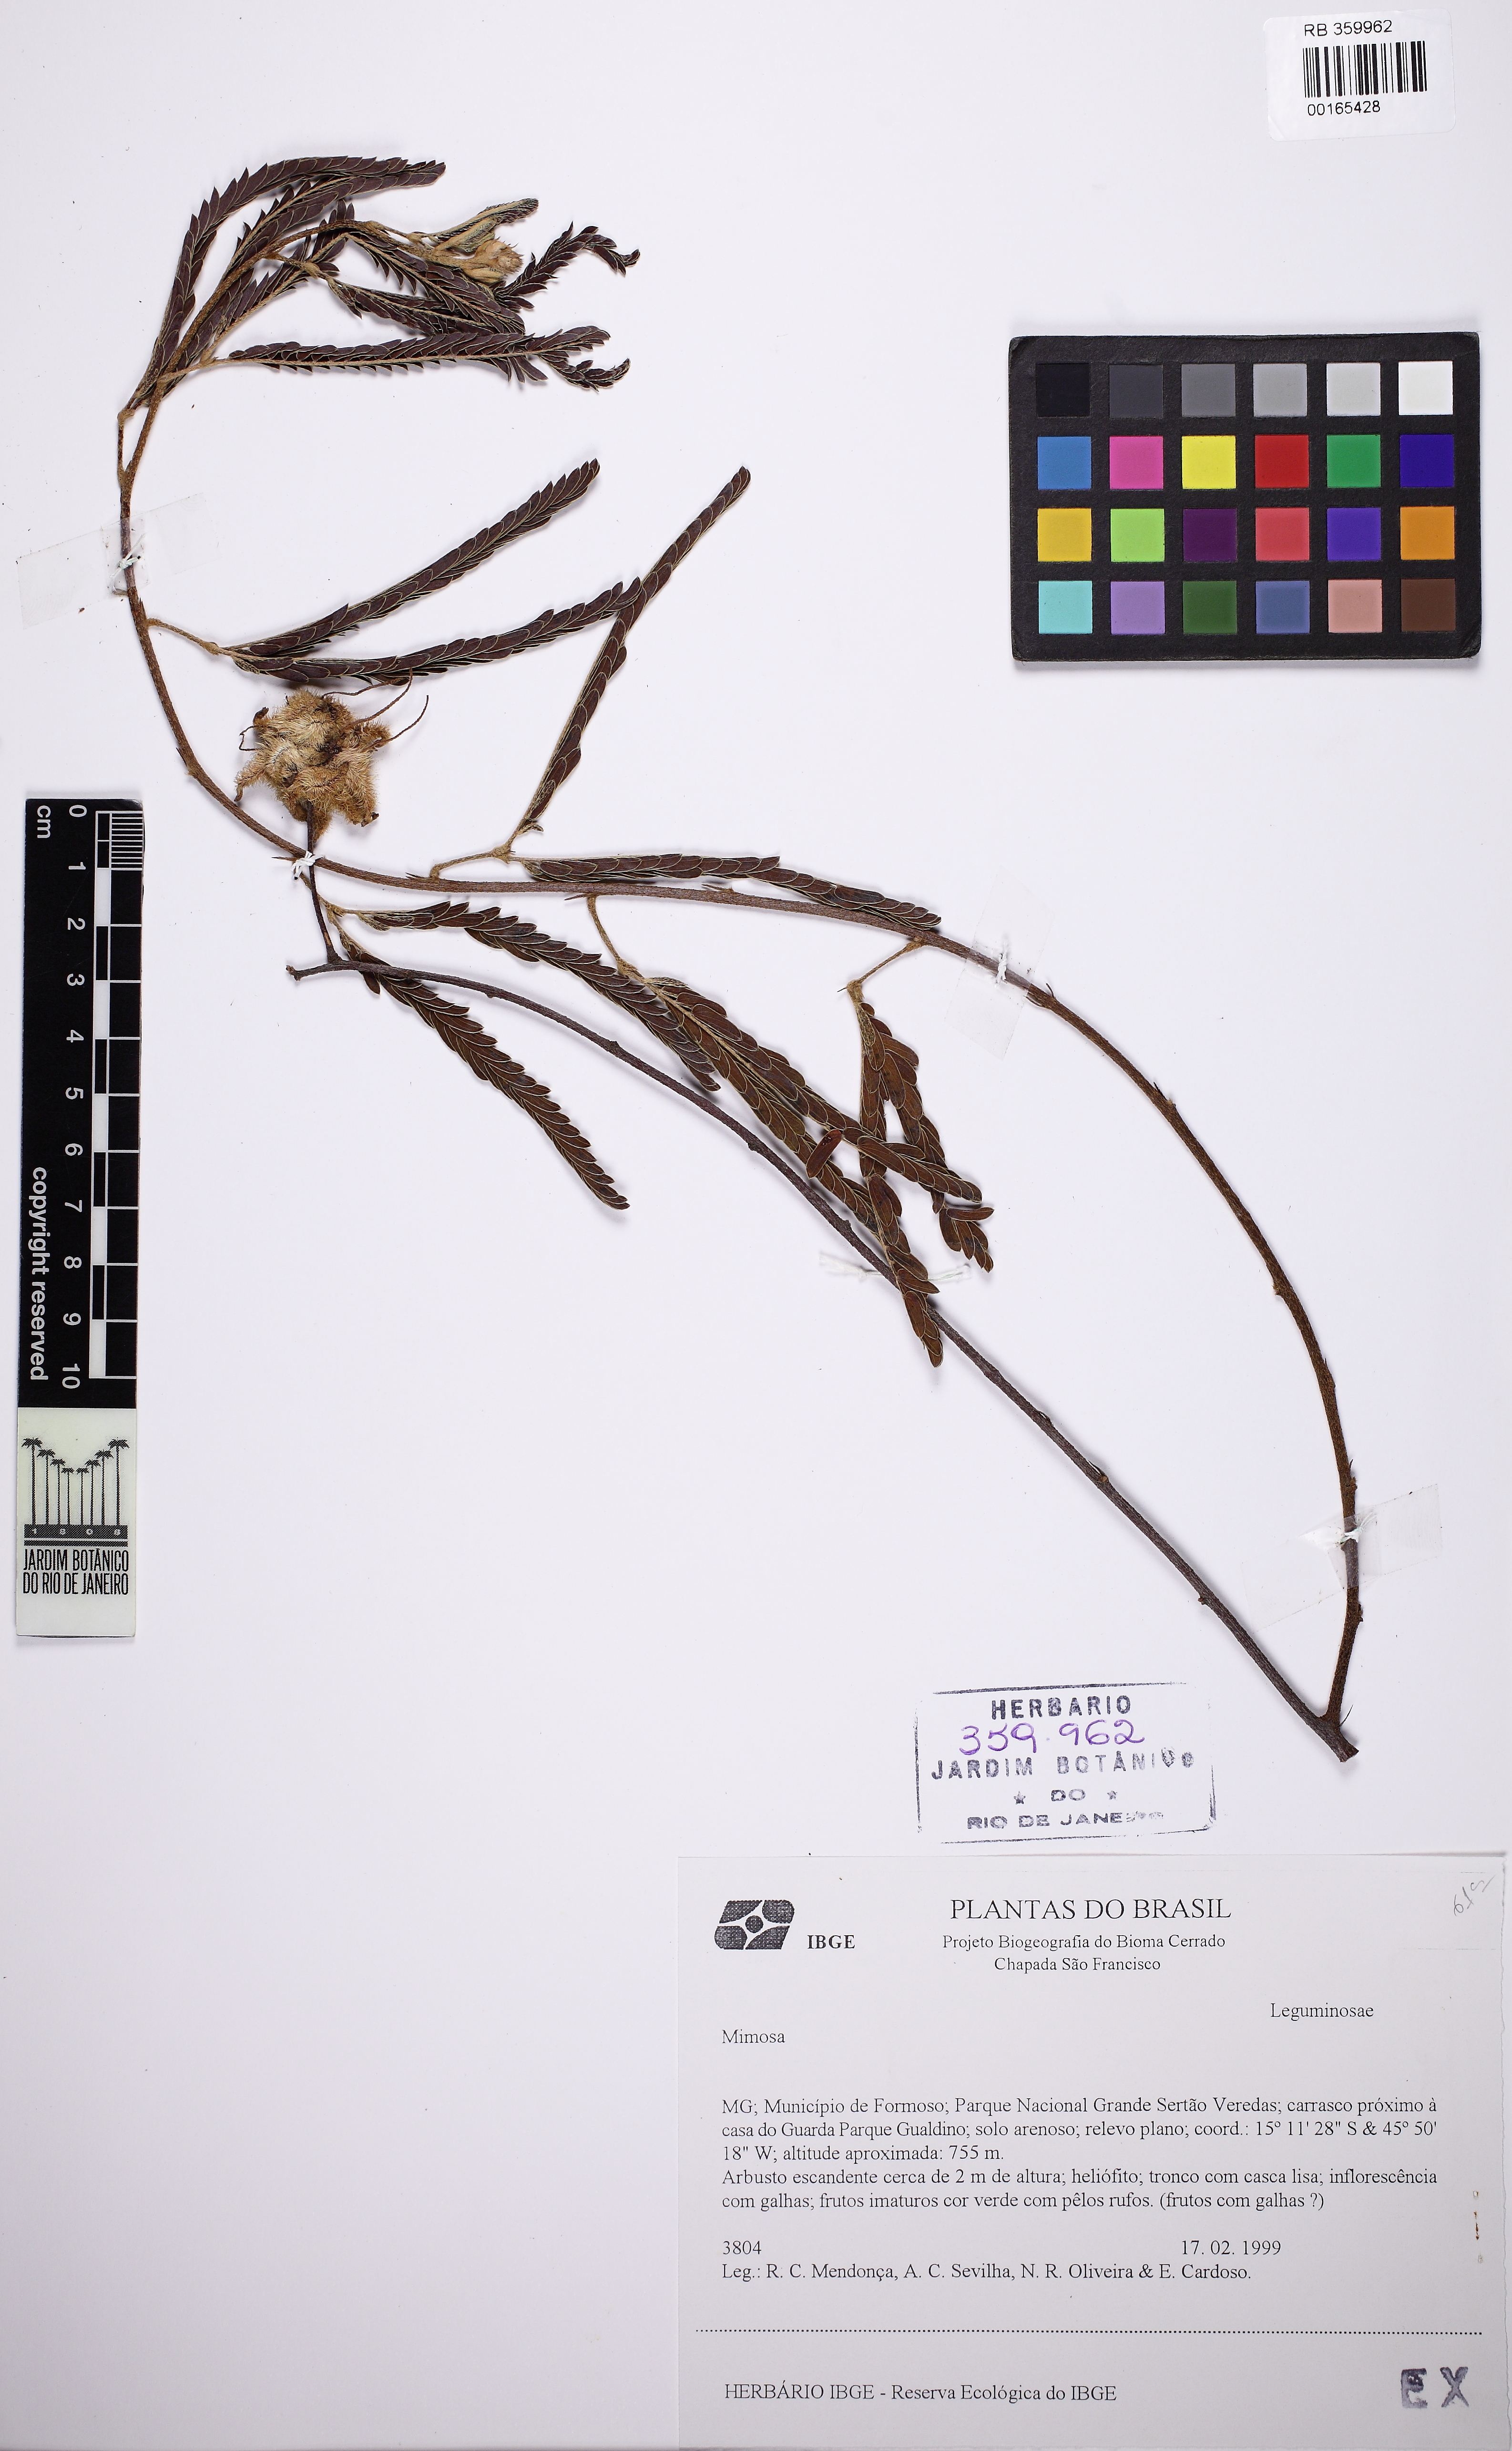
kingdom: Plantae
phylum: Tracheophyta
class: Magnoliopsida
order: Fabales
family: Fabaceae
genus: Mimosa
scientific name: Mimosa
